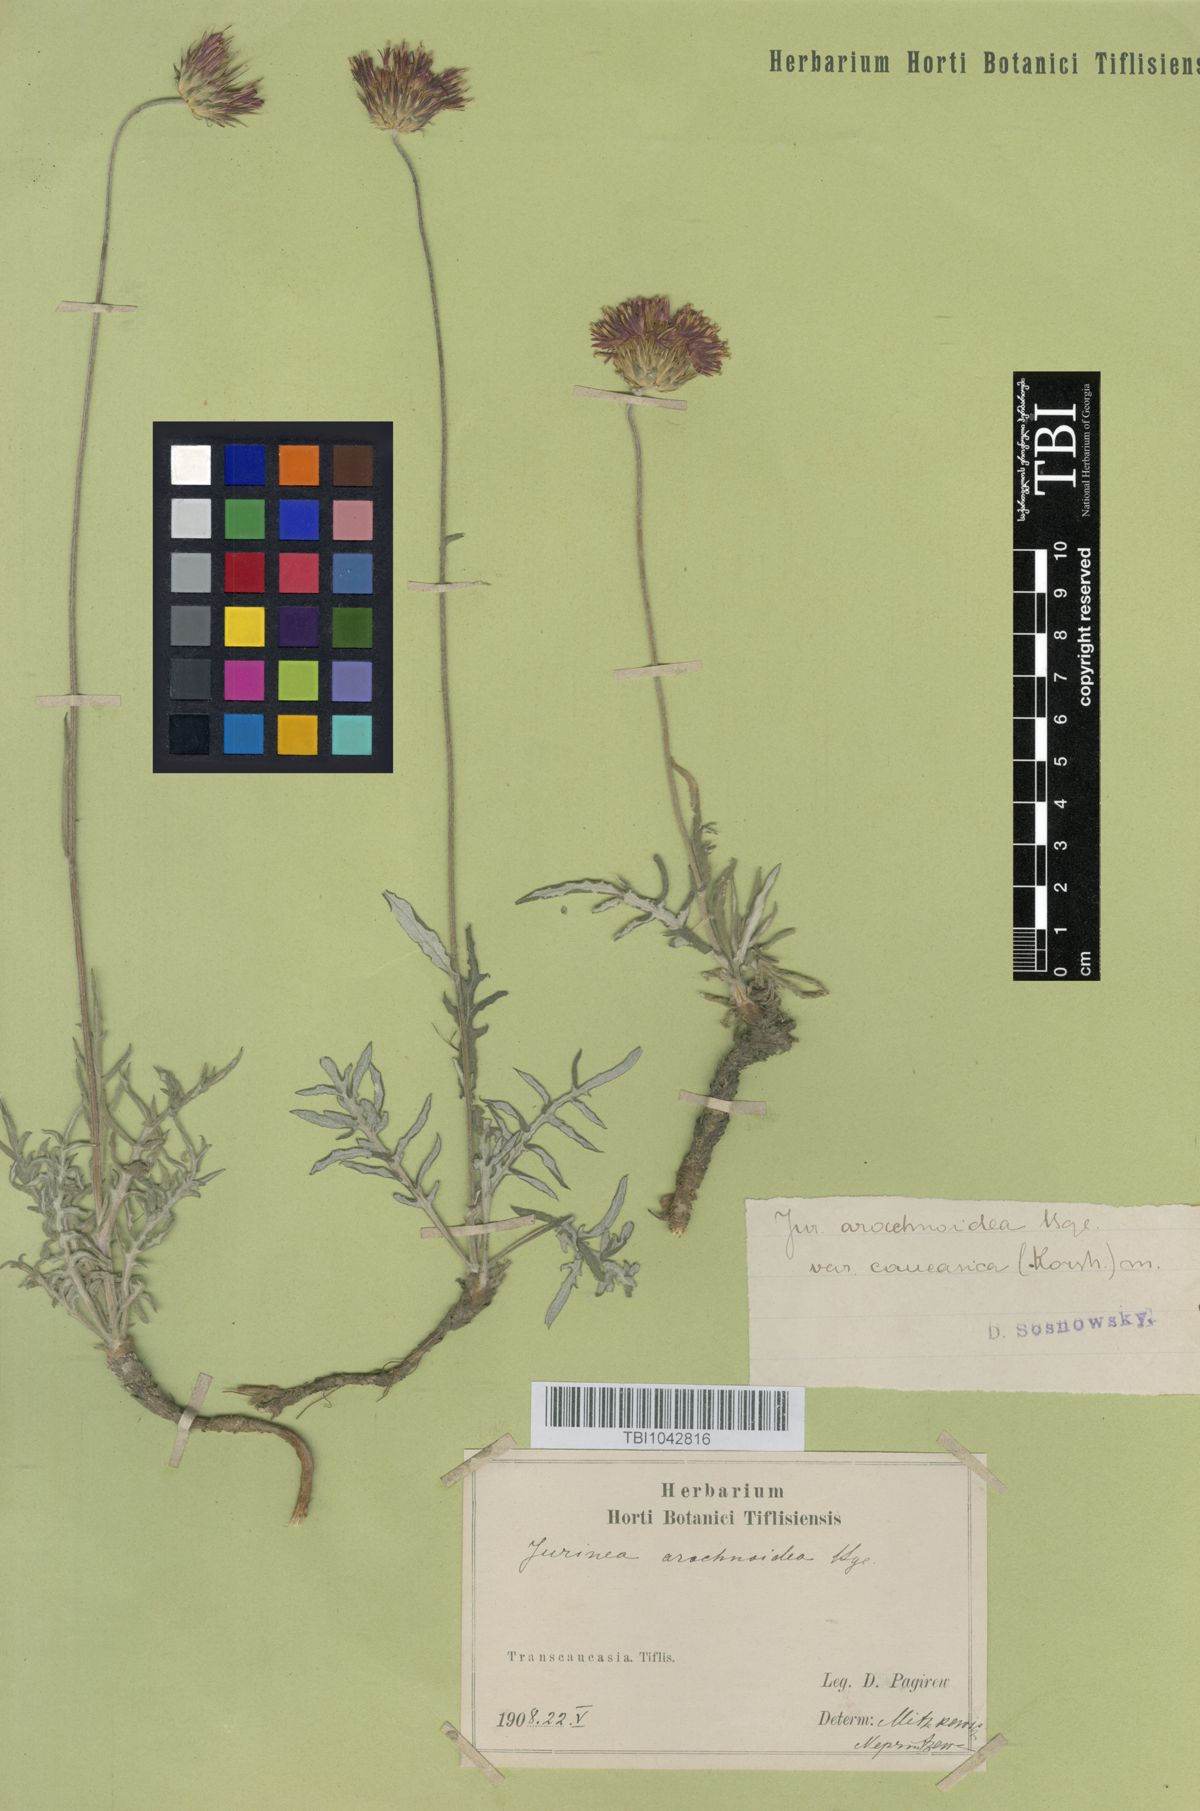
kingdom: Plantae
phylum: Tracheophyta
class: Magnoliopsida
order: Asterales
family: Asteraceae
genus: Jurinea
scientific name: Jurinea blanda
